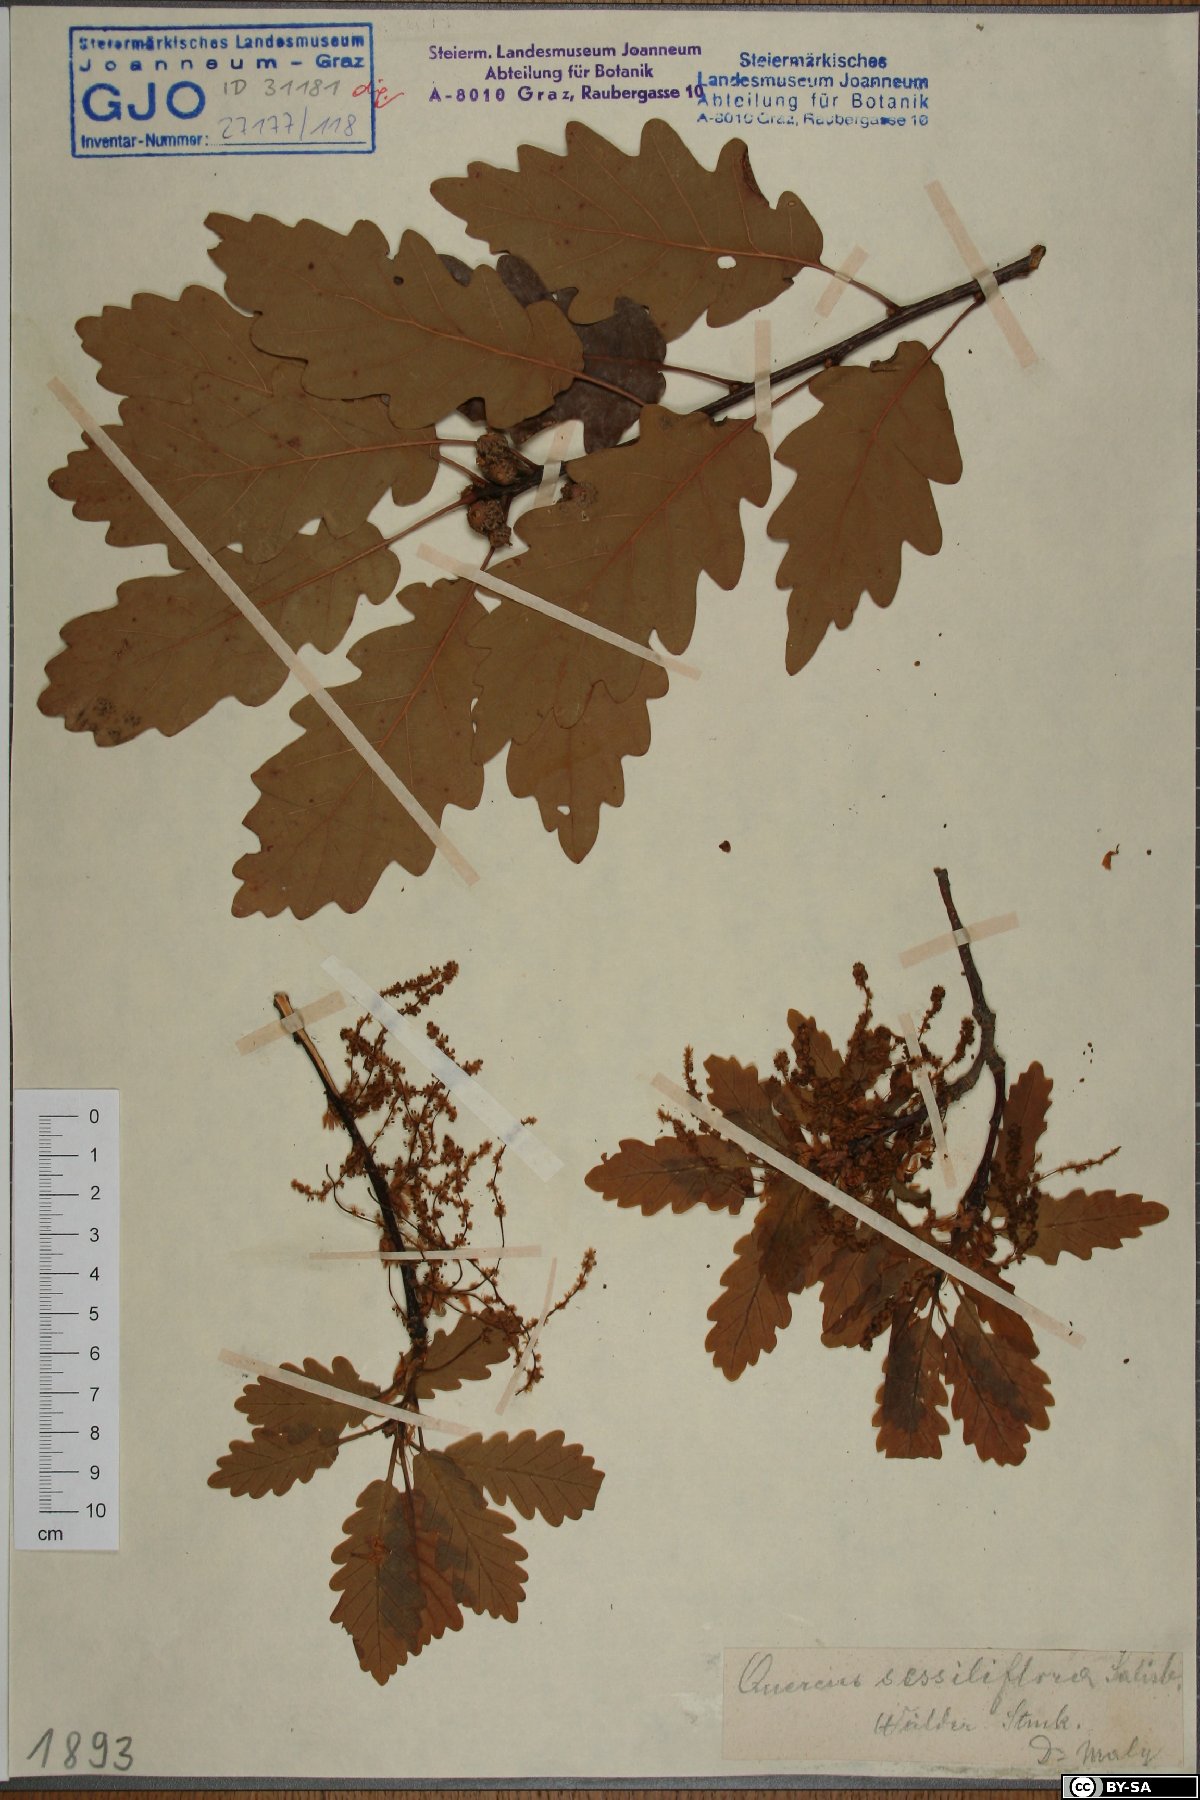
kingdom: Plantae
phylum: Tracheophyta
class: Magnoliopsida
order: Fagales
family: Fagaceae
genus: Quercus
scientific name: Quercus petraea
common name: Sessile oak
